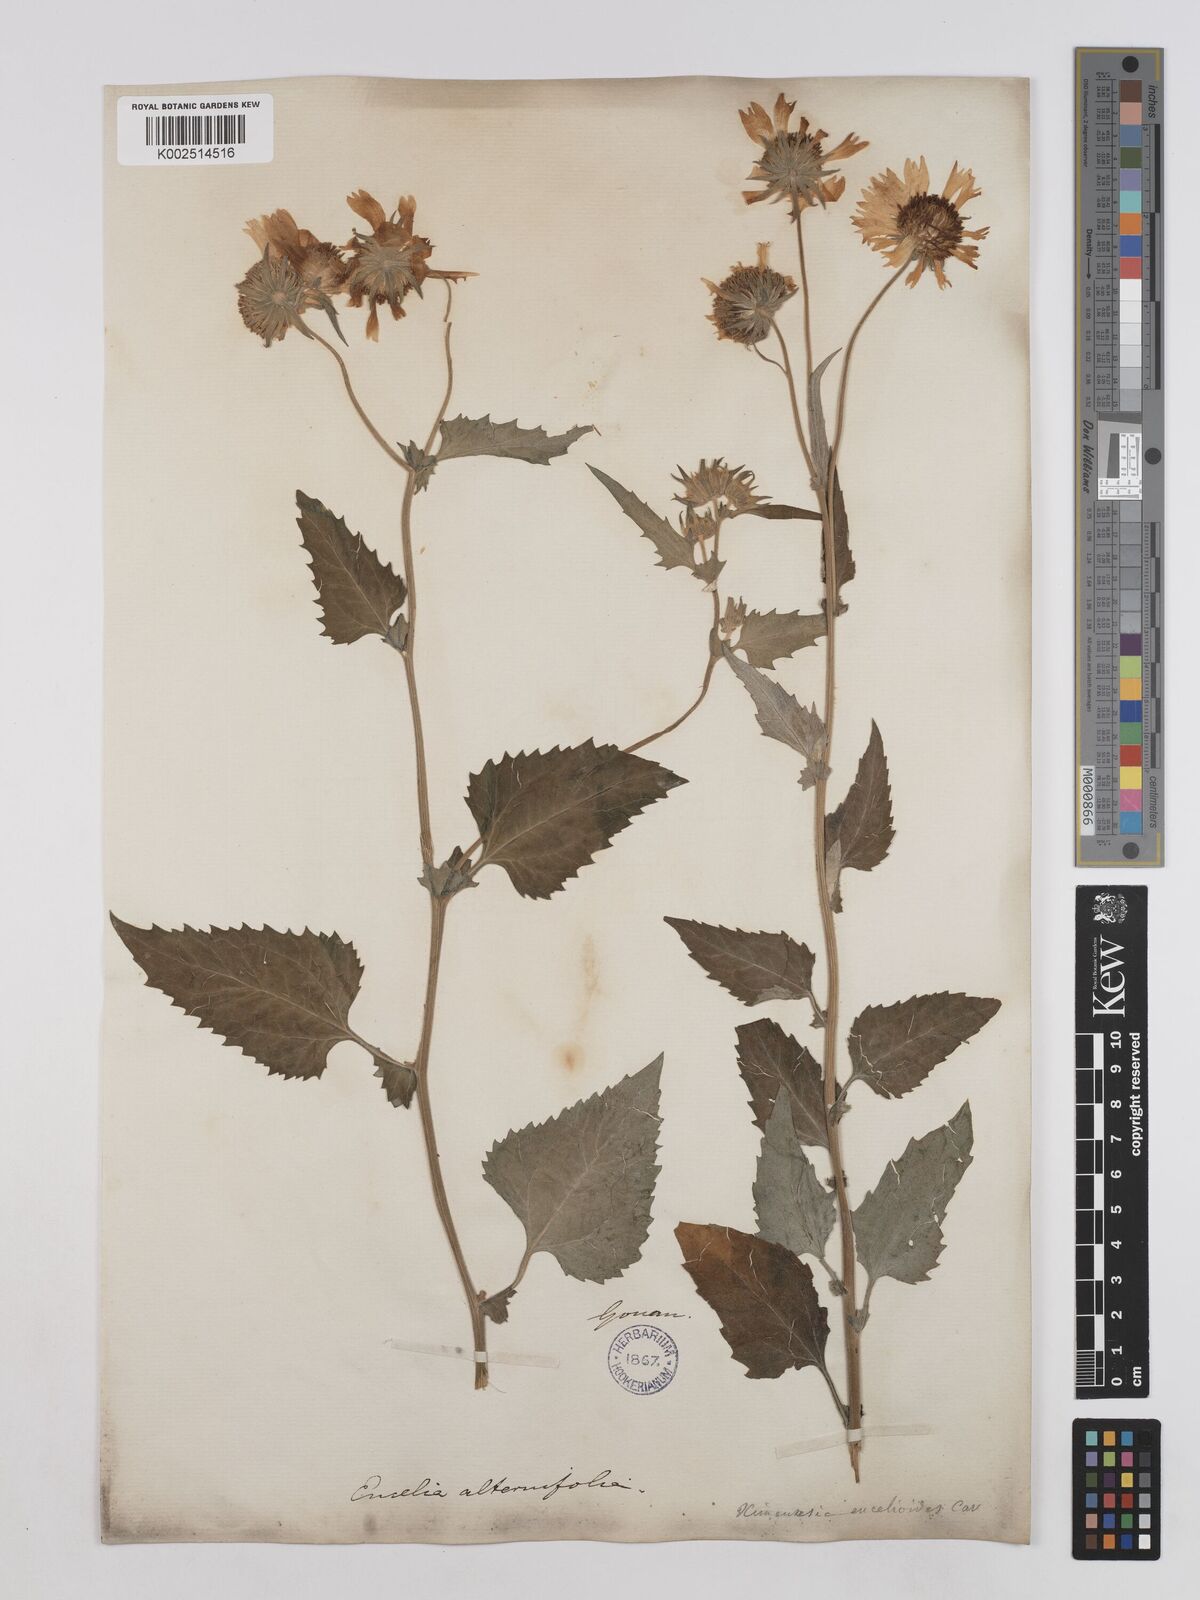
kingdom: Plantae
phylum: Tracheophyta
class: Magnoliopsida
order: Asterales
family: Asteraceae
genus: Verbesina
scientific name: Verbesina encelioides
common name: Golden crownbeard
